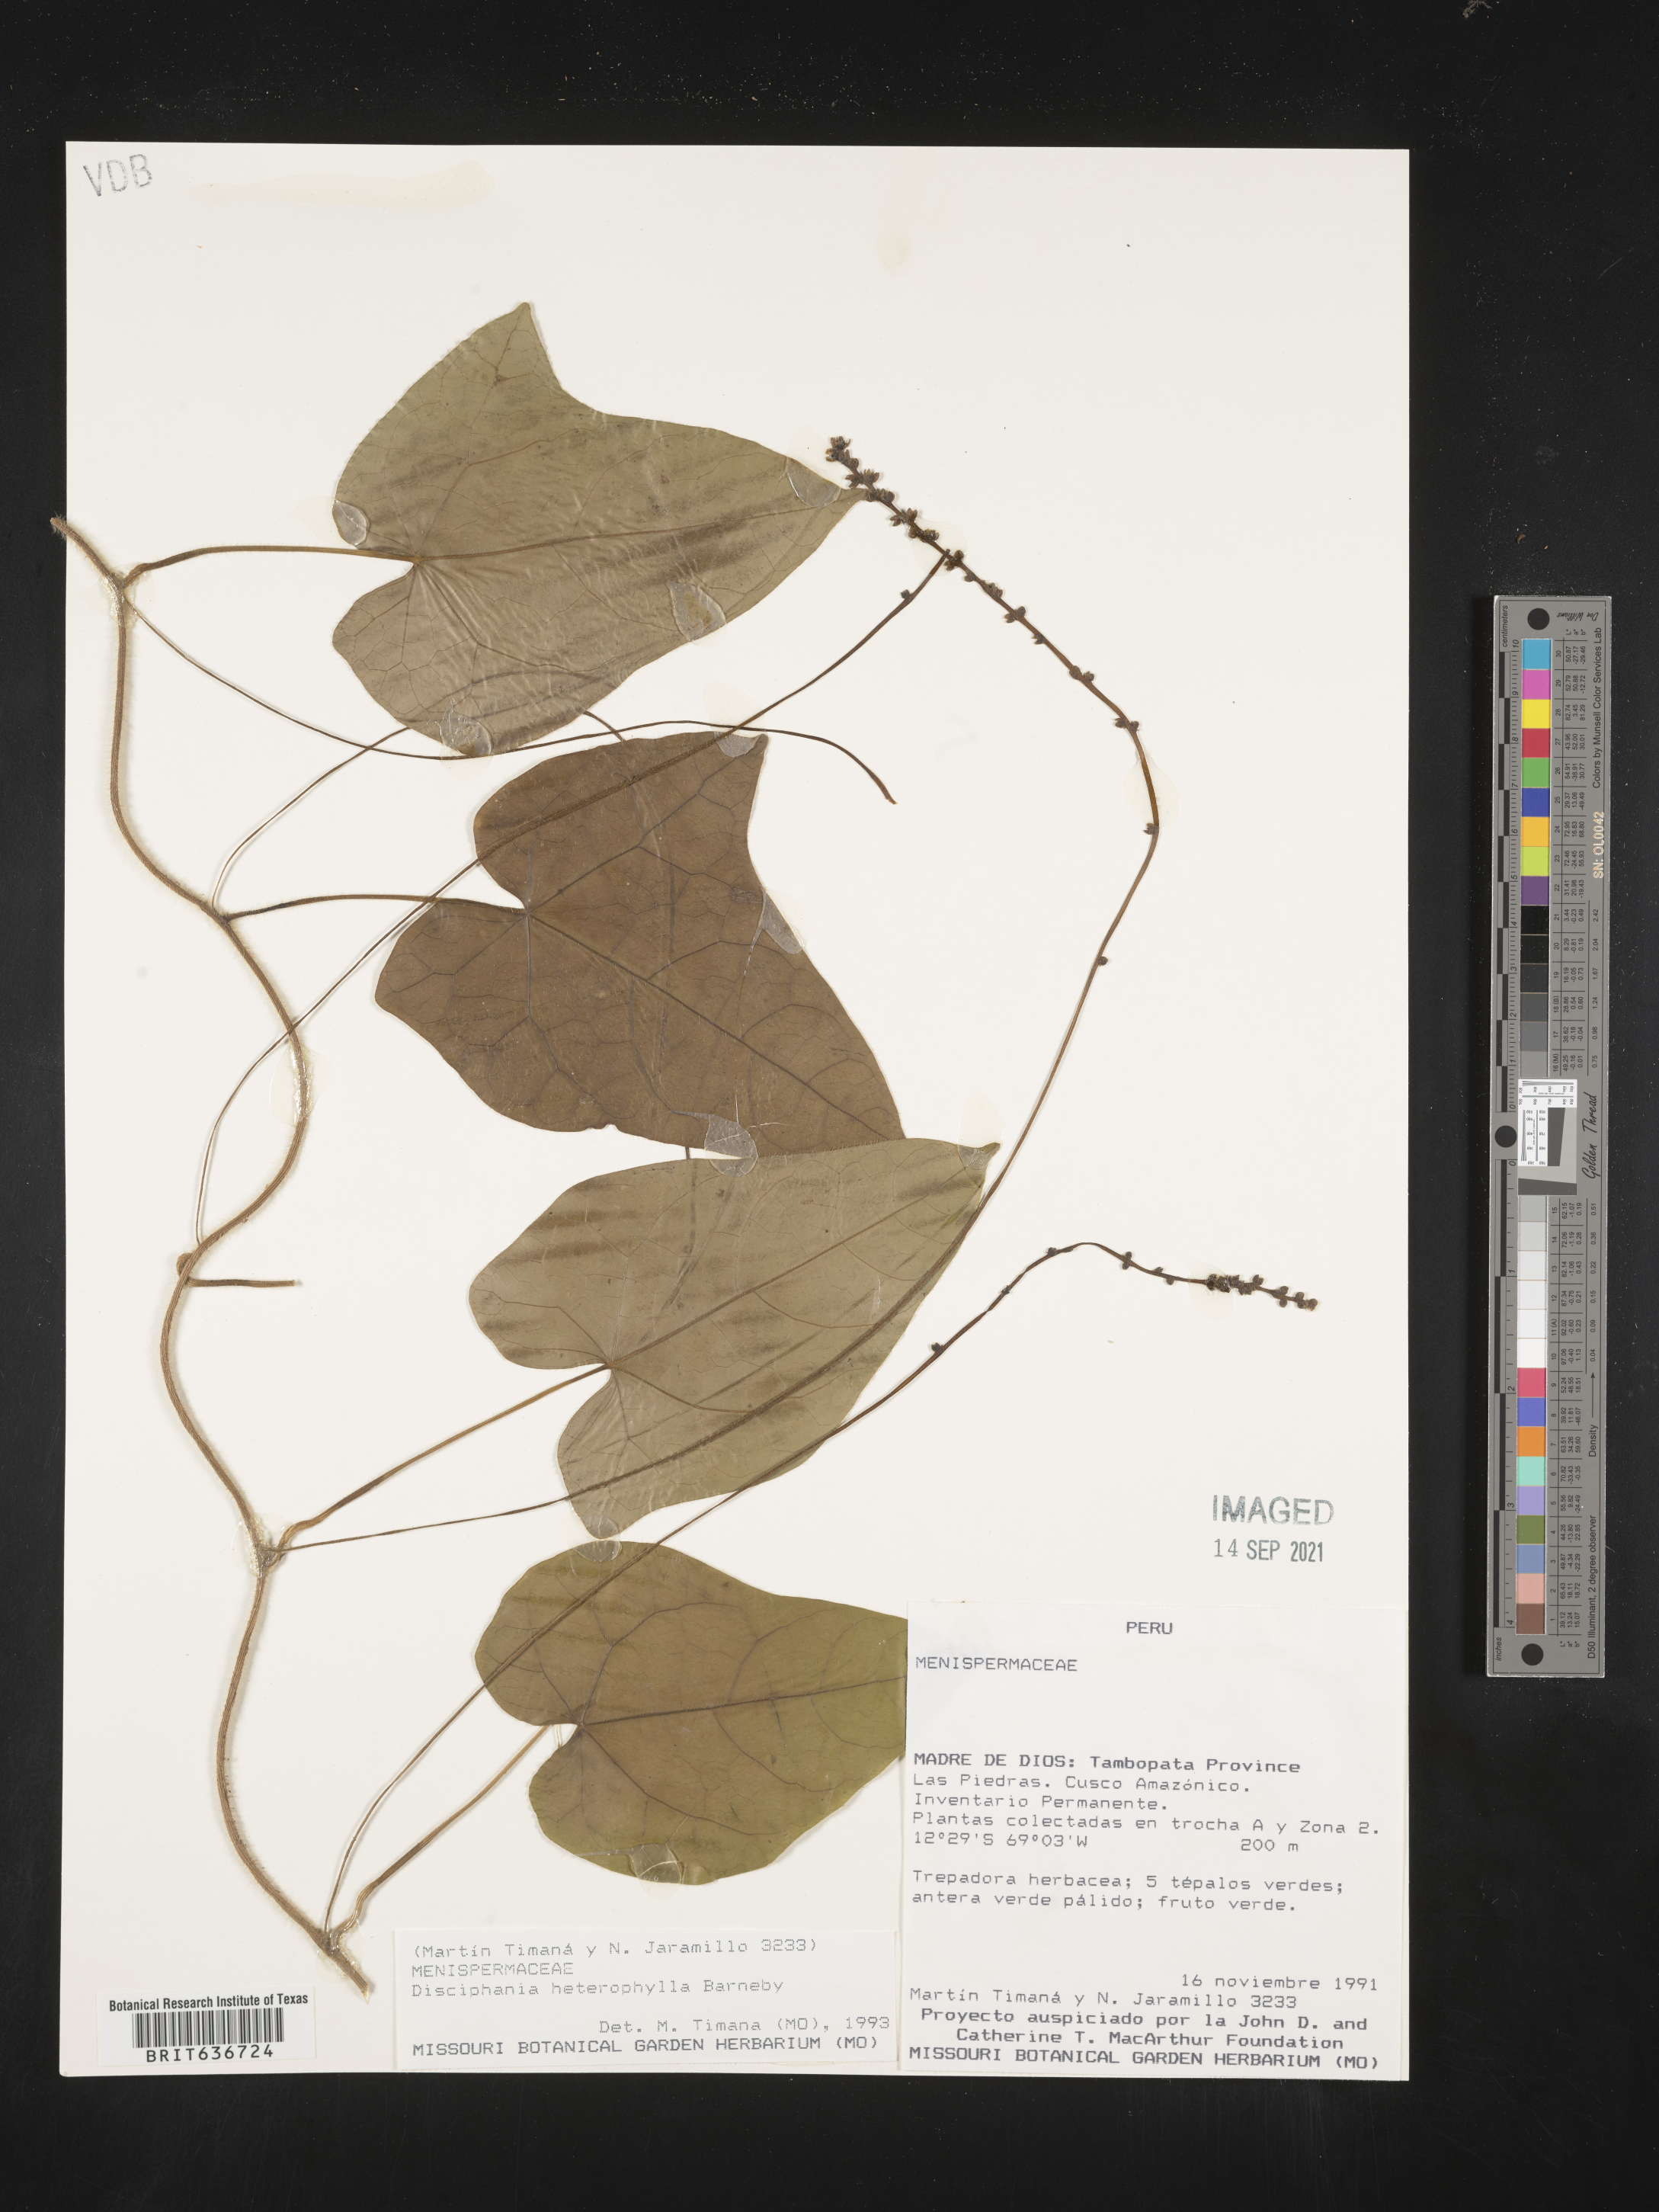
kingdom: Plantae
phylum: Tracheophyta
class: Magnoliopsida
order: Ranunculales
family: Menispermaceae
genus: Disciphania
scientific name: Disciphania heterophylla
